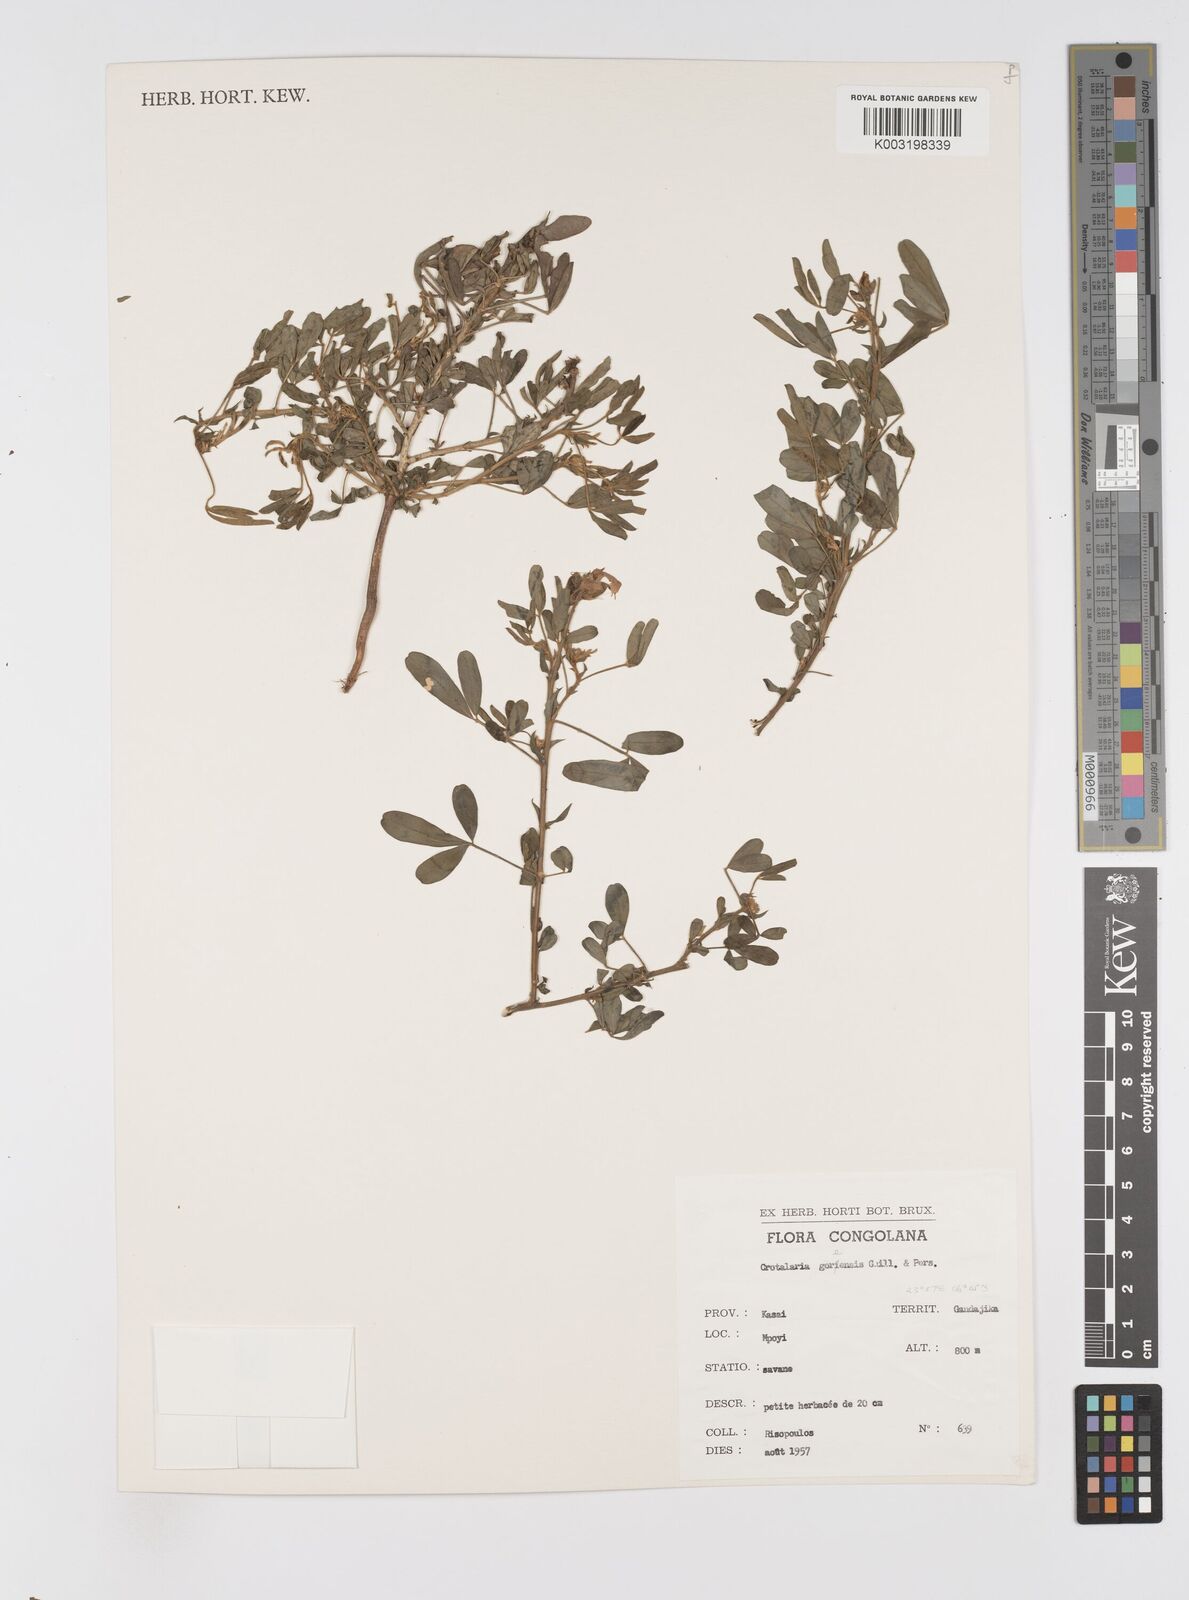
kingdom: Plantae
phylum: Tracheophyta
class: Magnoliopsida
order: Fabales
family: Fabaceae
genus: Crotalaria
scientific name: Crotalaria goreensis
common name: Gambia-pea
